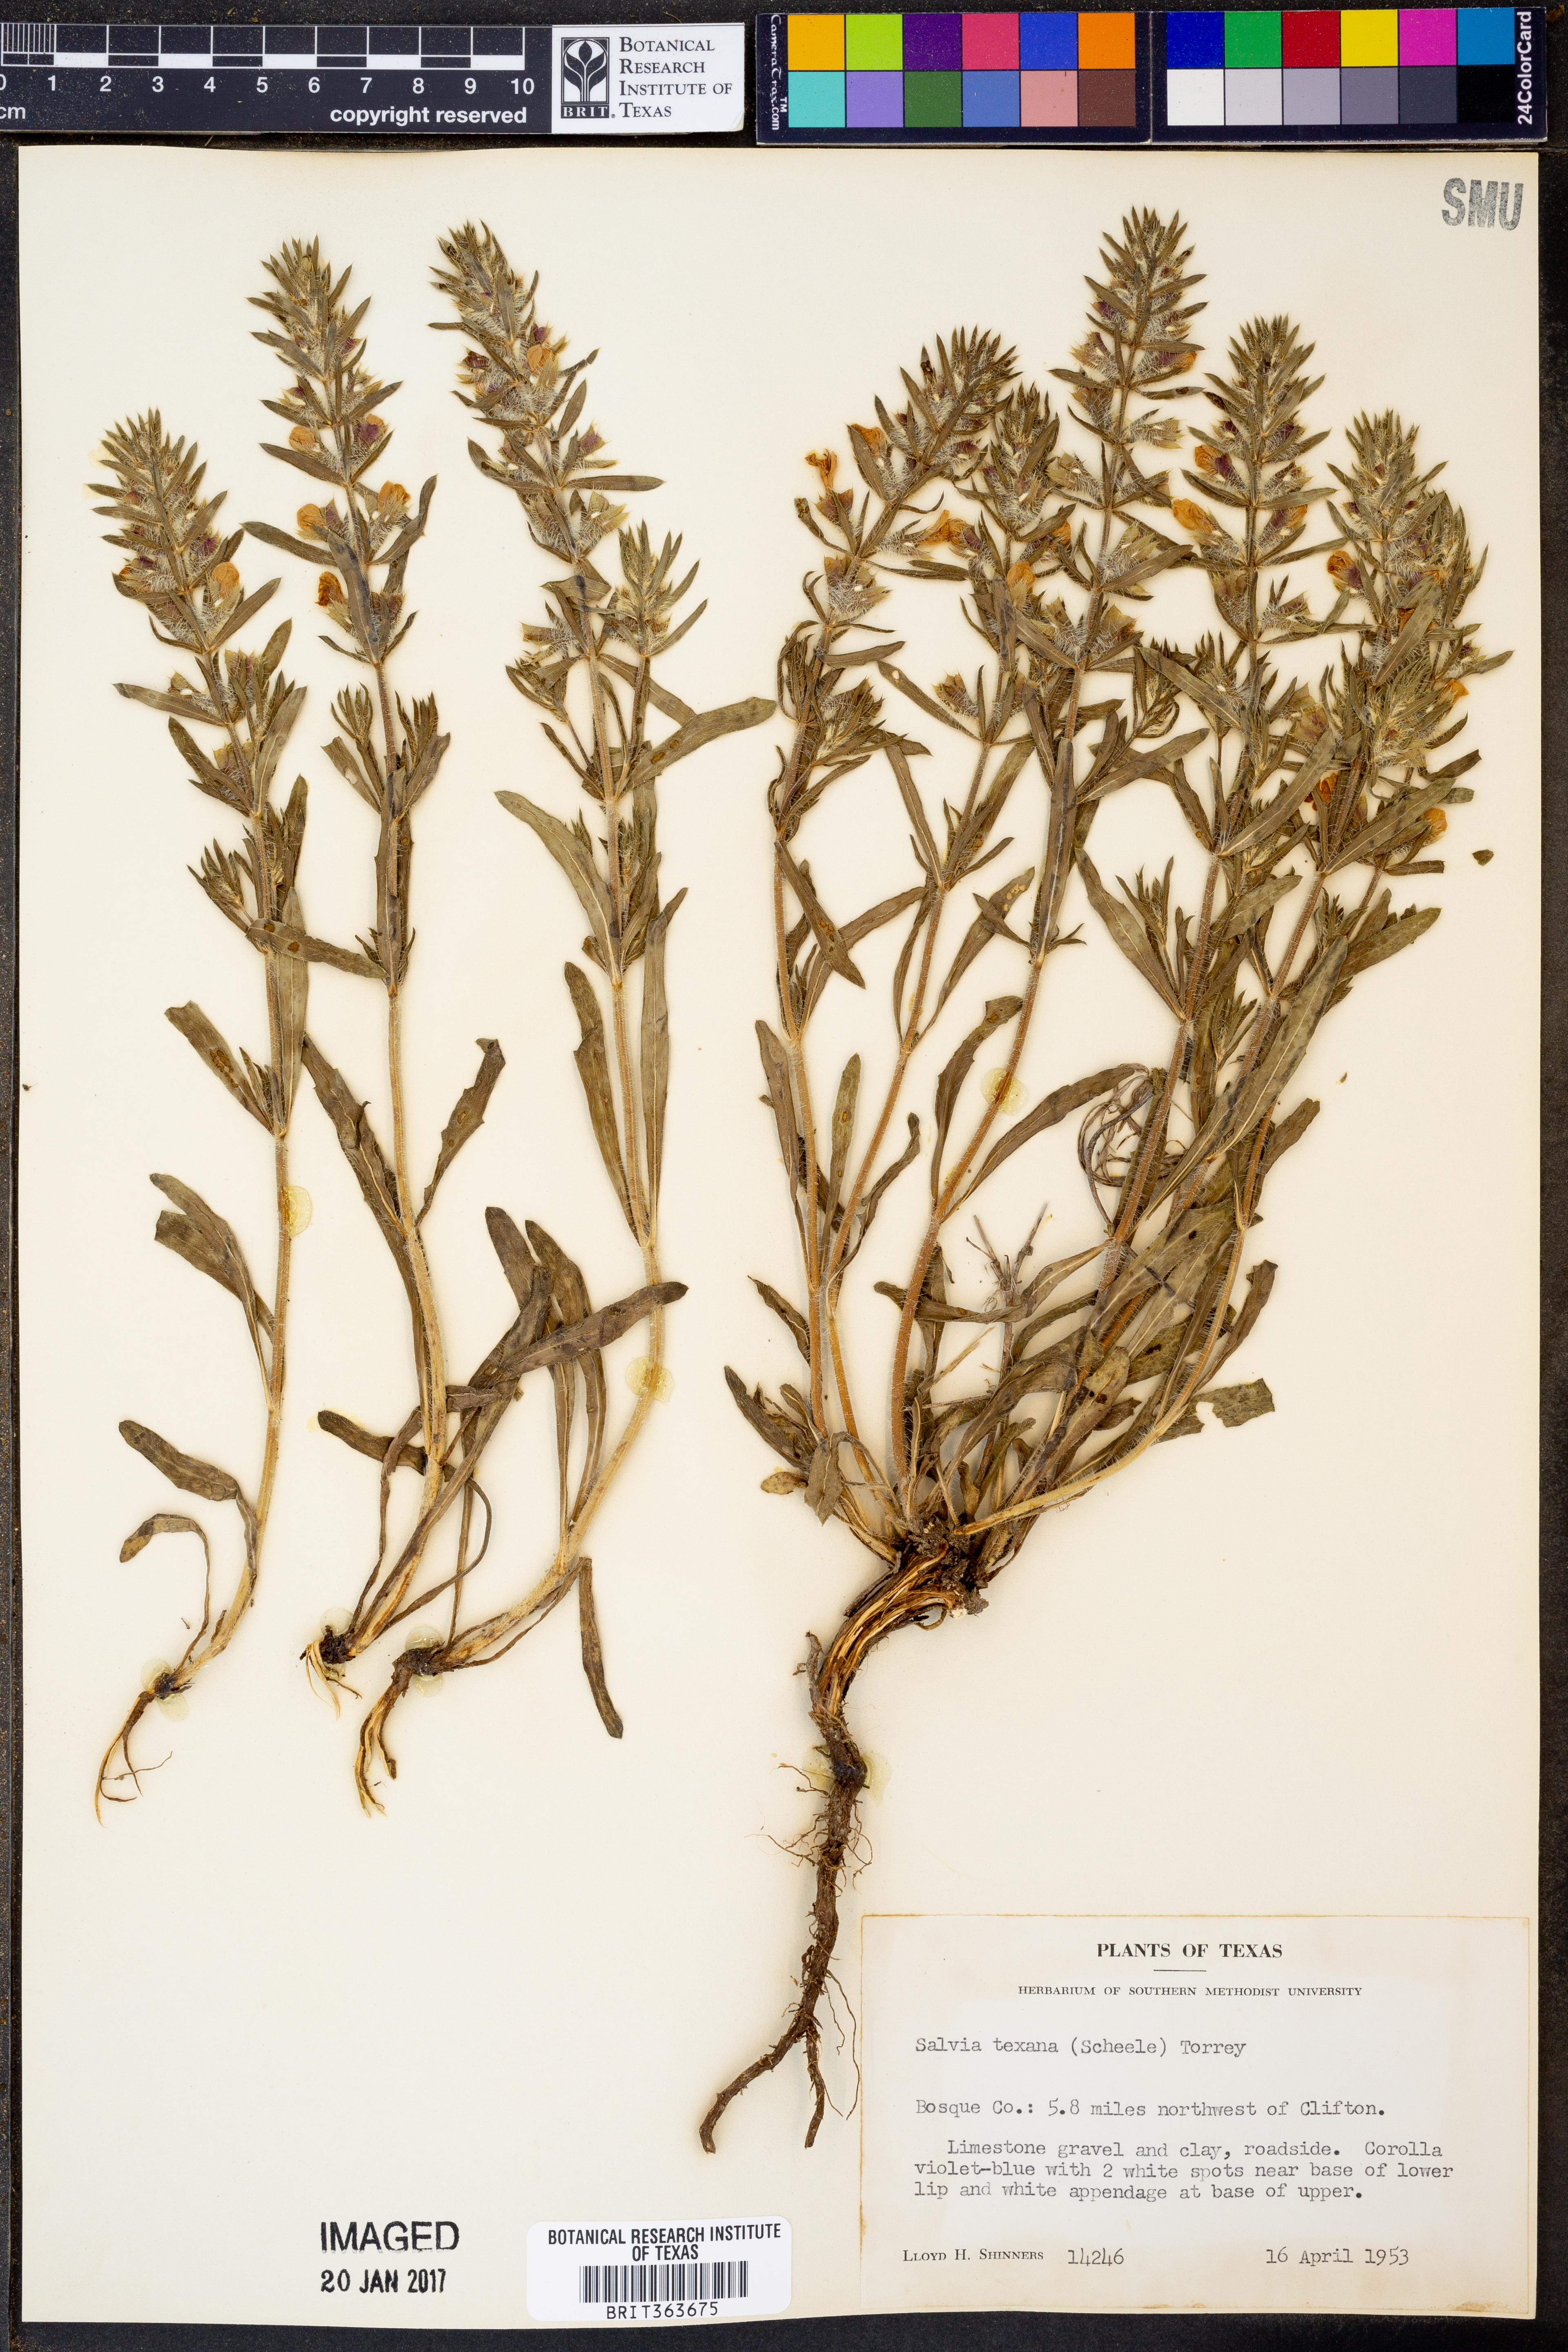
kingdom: Plantae
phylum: Tracheophyta
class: Magnoliopsida
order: Lamiales
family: Lamiaceae
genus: Salvia
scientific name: Salvia texana
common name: Texas sage
